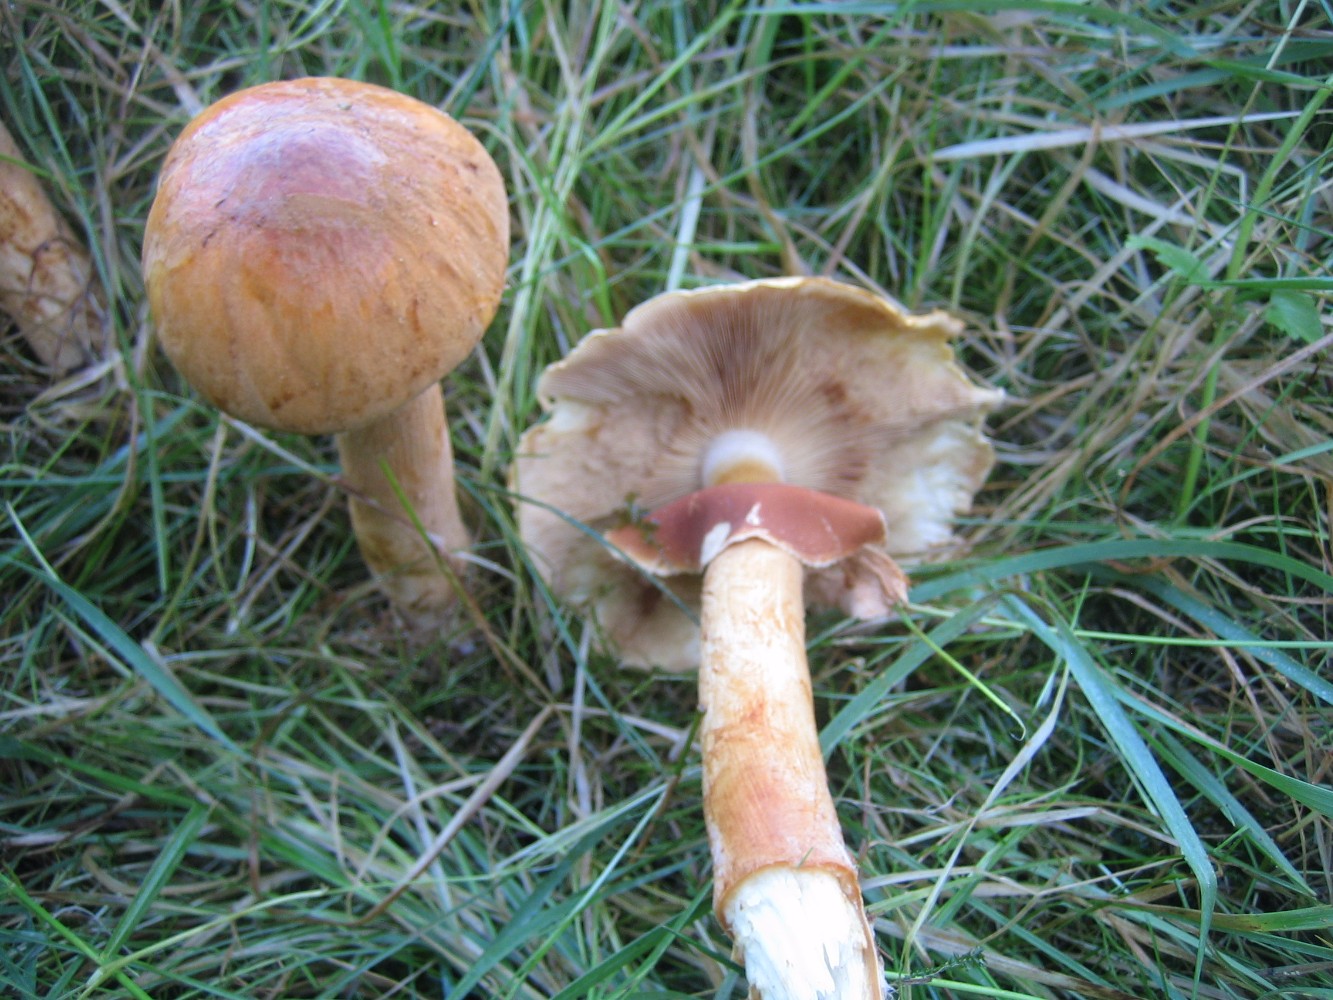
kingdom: Fungi
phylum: Basidiomycota
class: Agaricomycetes
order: Agaricales
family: Tricholomataceae
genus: Phaeolepiota
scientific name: Phaeolepiota aurea
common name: gyldenhat
